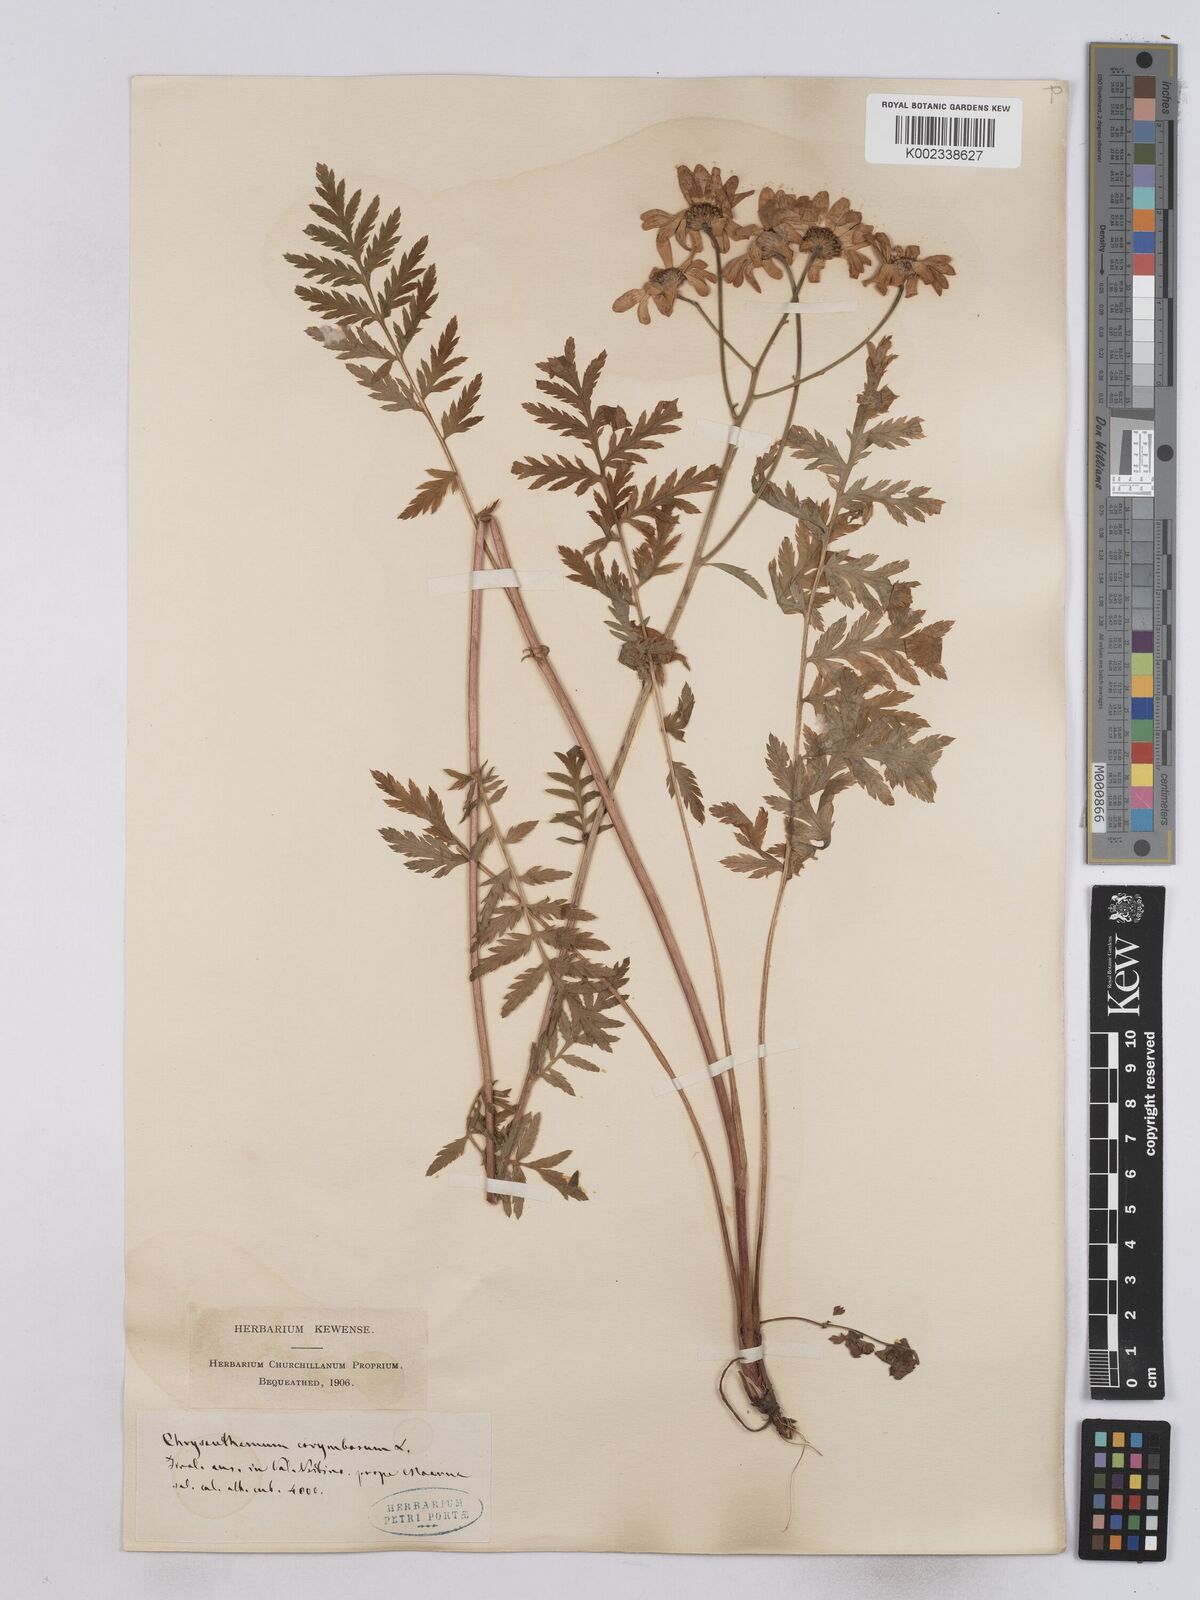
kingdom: Plantae
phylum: Tracheophyta
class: Magnoliopsida
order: Asterales
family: Asteraceae
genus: Tanacetum
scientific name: Tanacetum corymbosum
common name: Scentless feverfew
